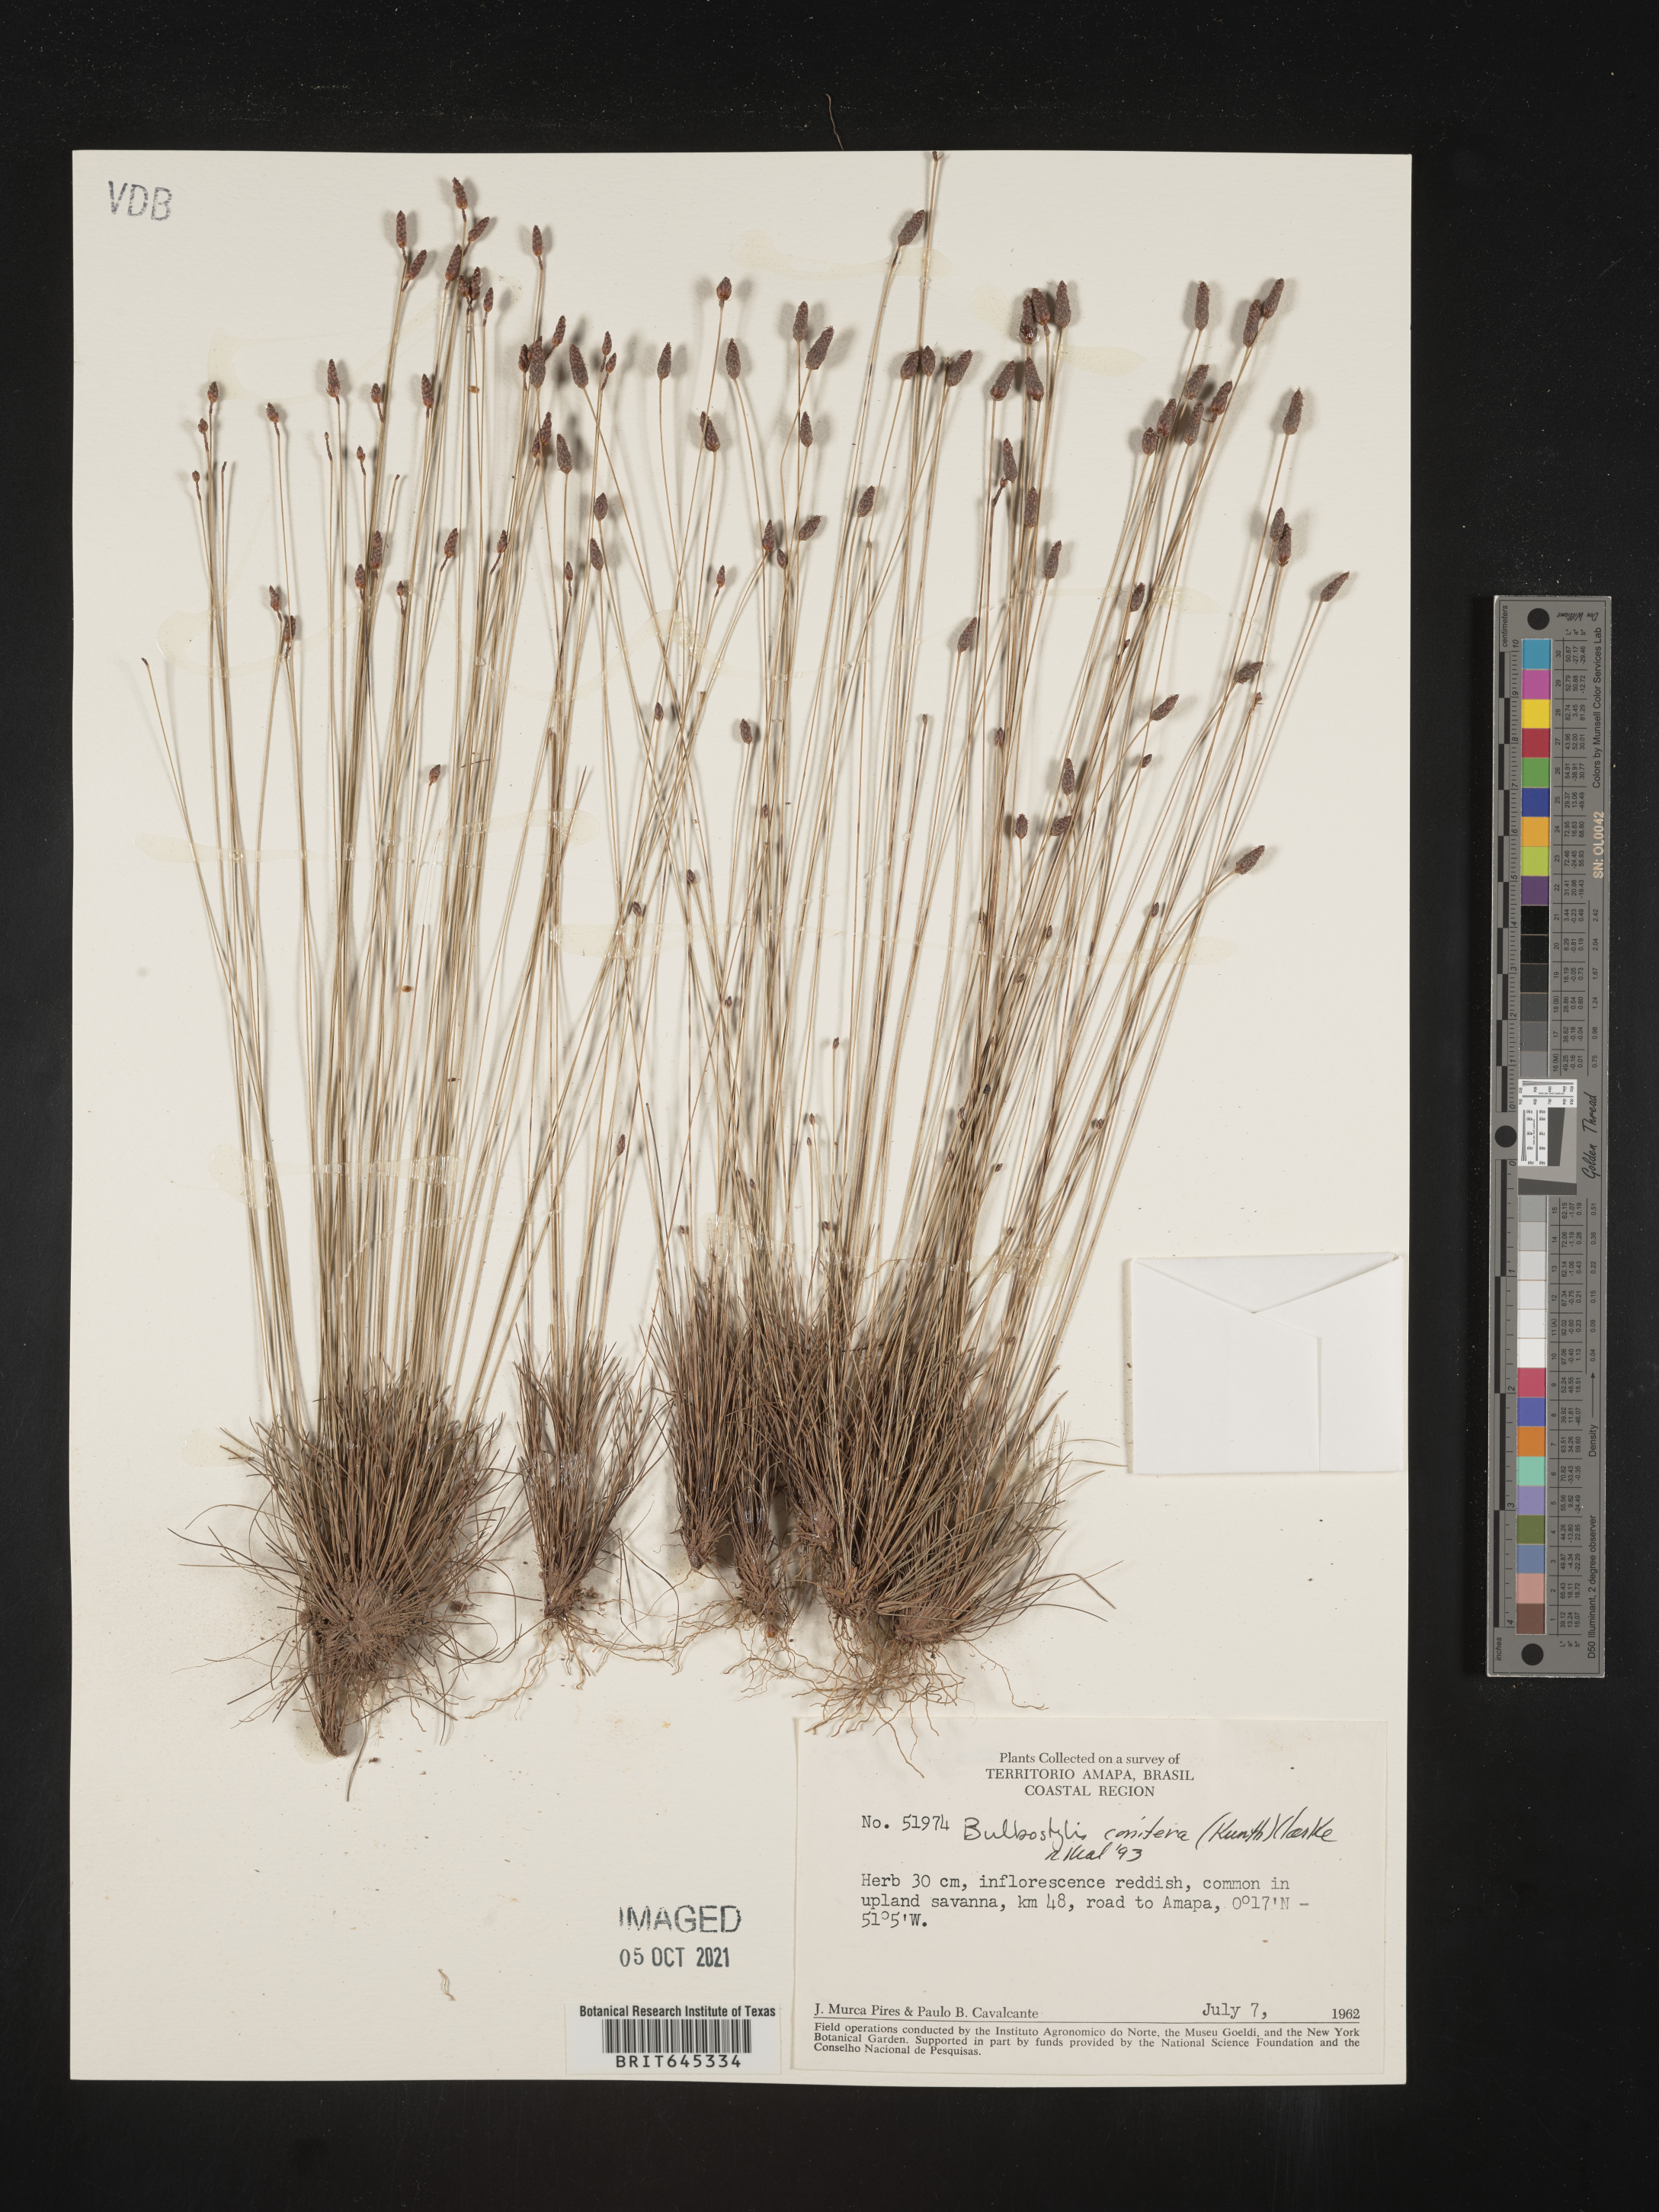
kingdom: Plantae
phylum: Tracheophyta
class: Liliopsida
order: Poales
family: Cyperaceae
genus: Bulbostylis
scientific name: Bulbostylis conifera
